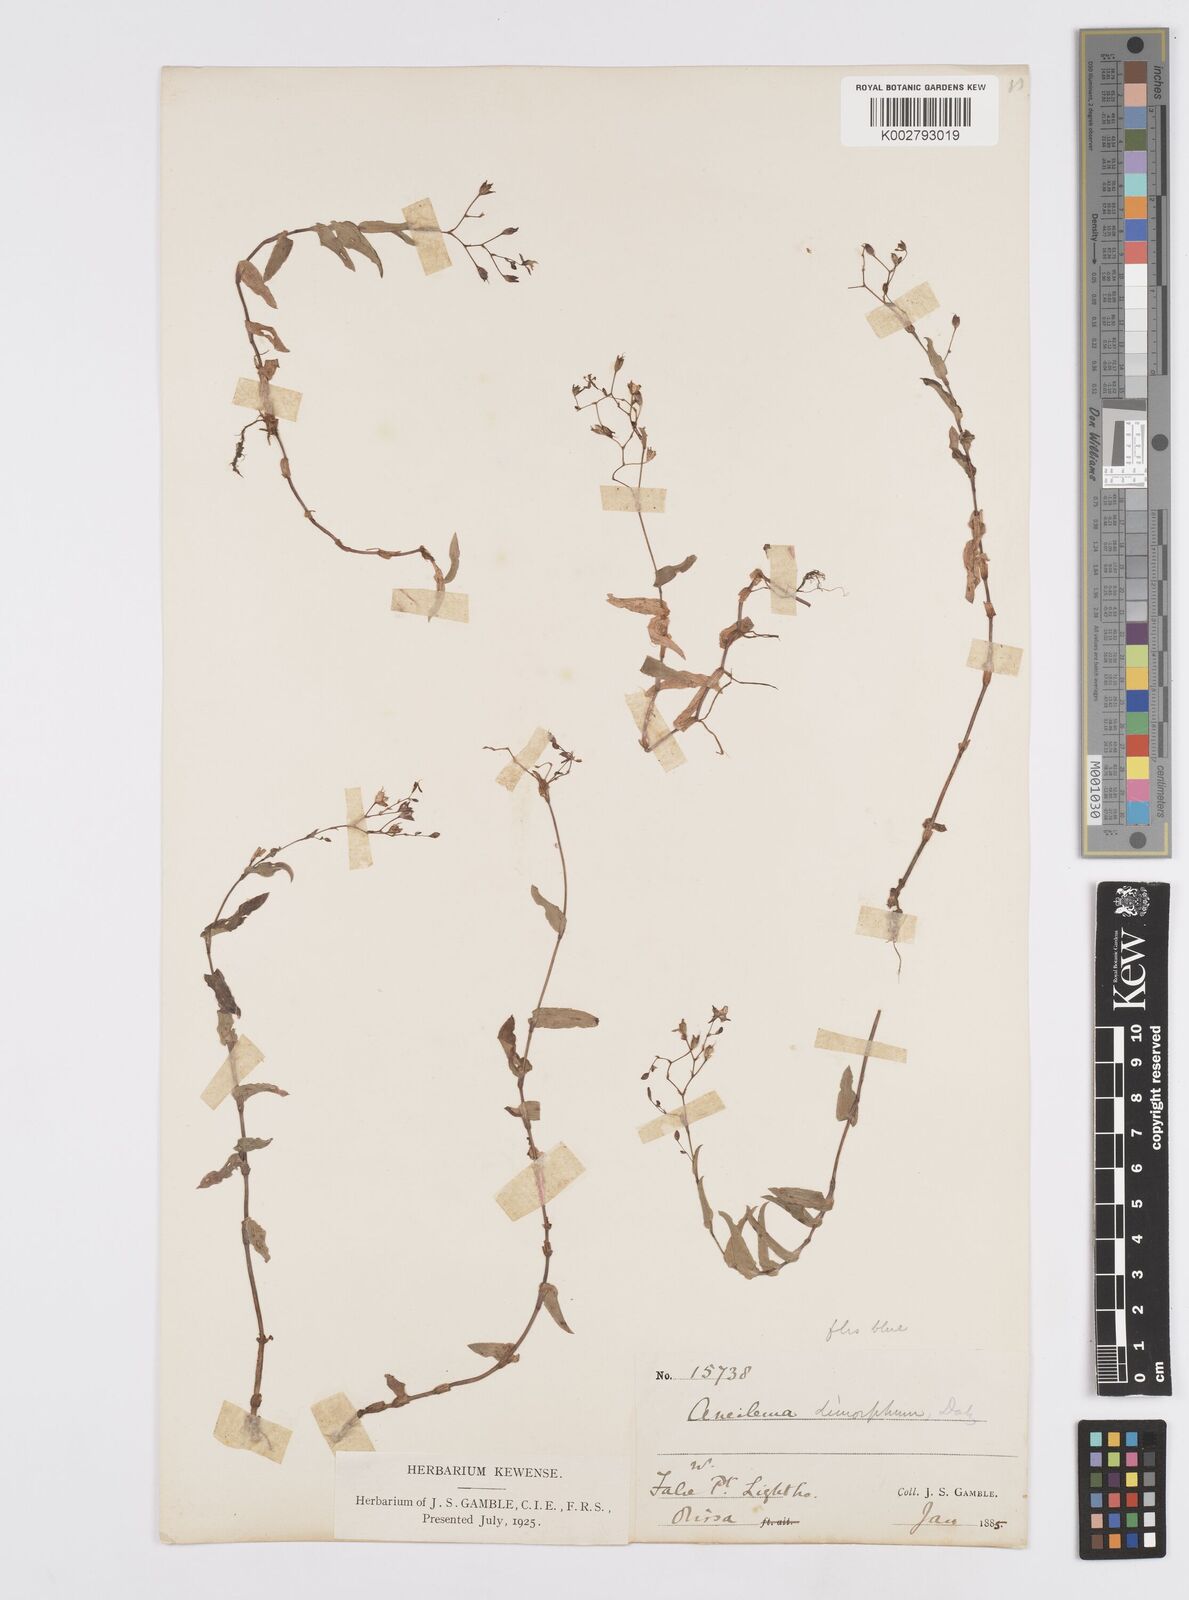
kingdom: Plantae
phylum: Tracheophyta
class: Liliopsida
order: Commelinales
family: Commelinaceae
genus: Murdannia
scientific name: Murdannia dimorpha
